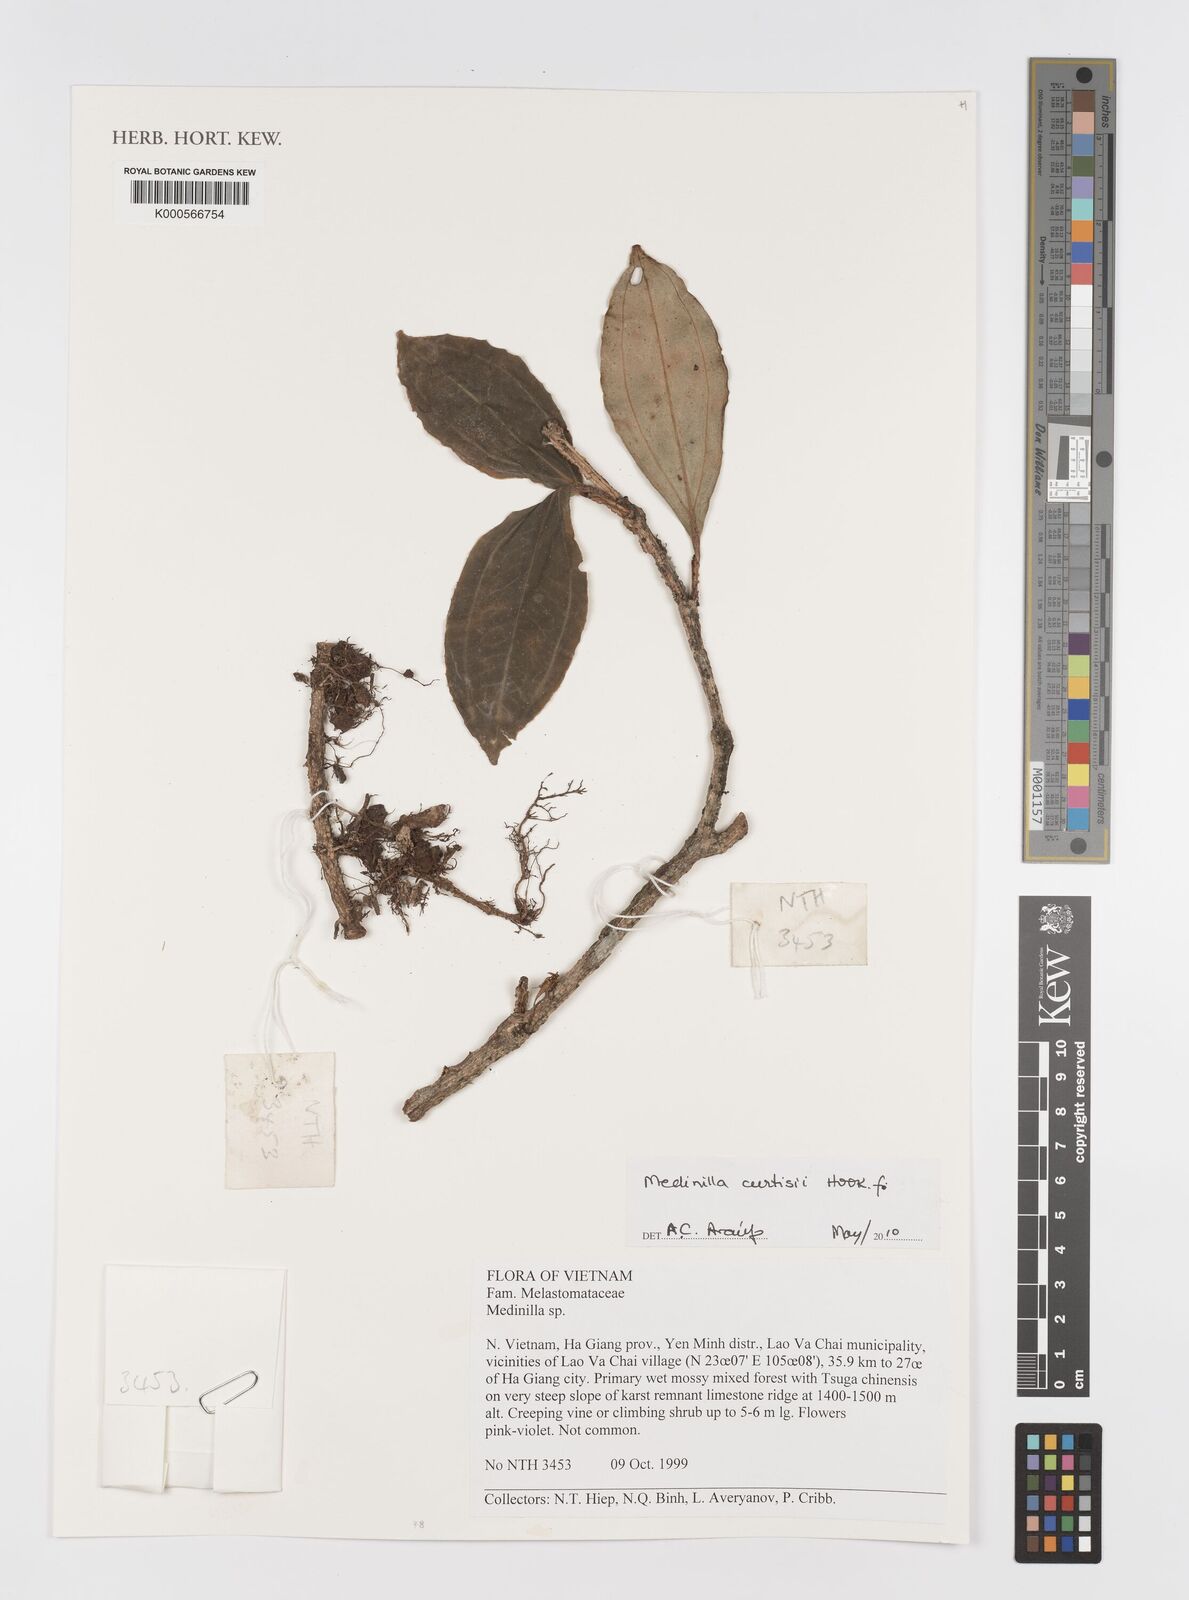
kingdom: Plantae
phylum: Tracheophyta
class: Magnoliopsida
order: Myrtales
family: Melastomataceae
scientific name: Melastomataceae
